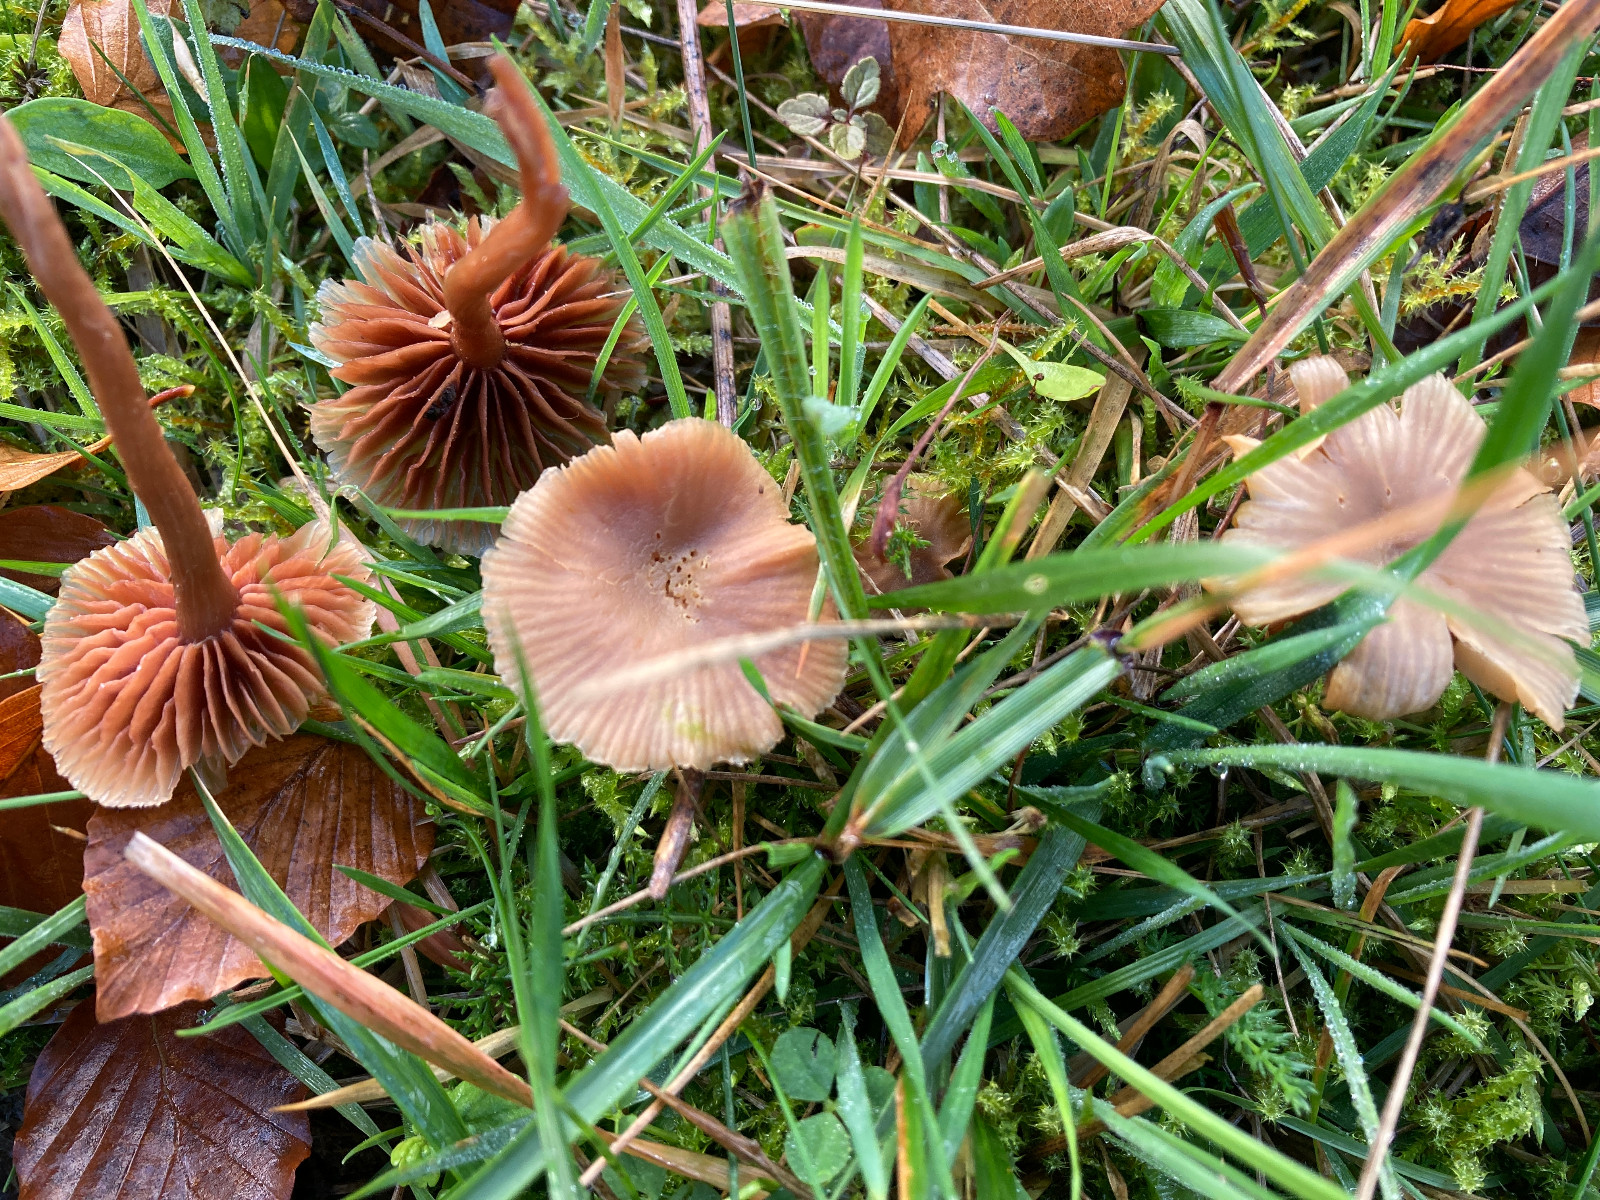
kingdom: Fungi
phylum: Basidiomycota
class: Agaricomycetes
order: Agaricales
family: Tubariaceae
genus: Tubaria
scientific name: Tubaria furfuracea
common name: kliddet fnughat
